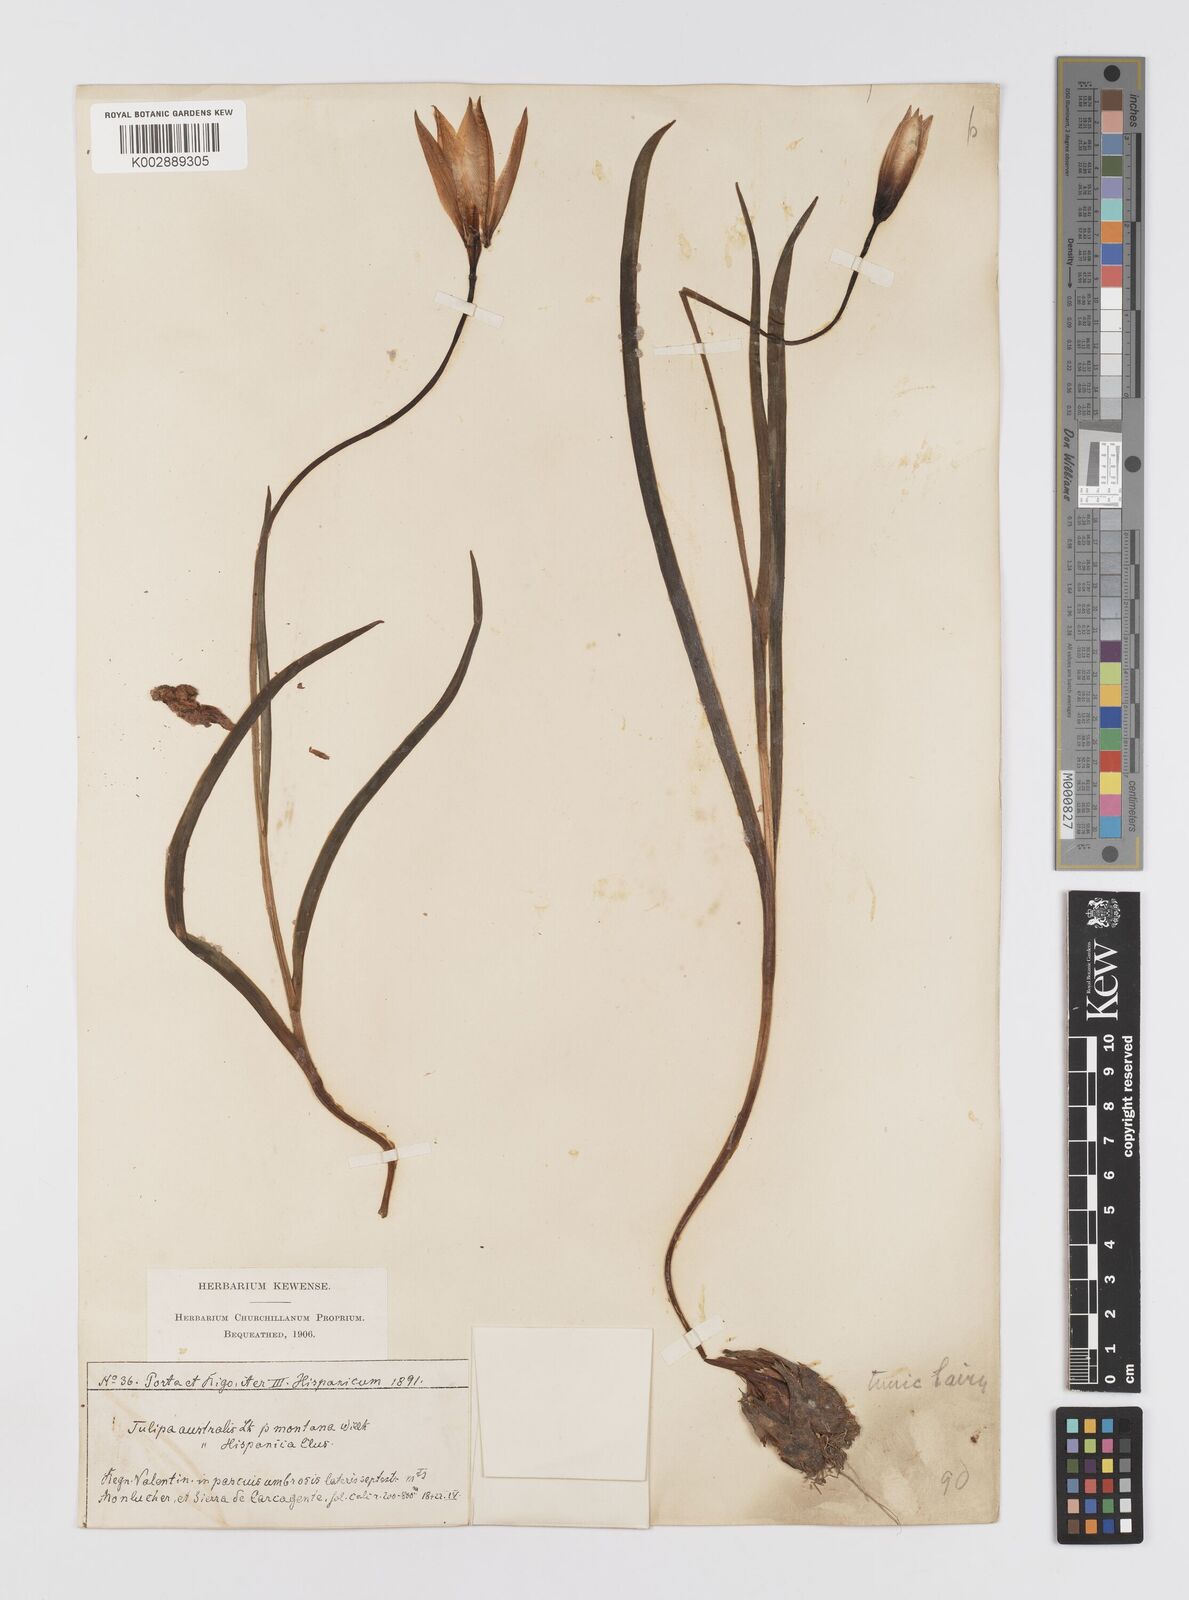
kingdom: Plantae
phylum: Tracheophyta
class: Liliopsida
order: Liliales
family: Liliaceae
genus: Tulipa
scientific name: Tulipa
